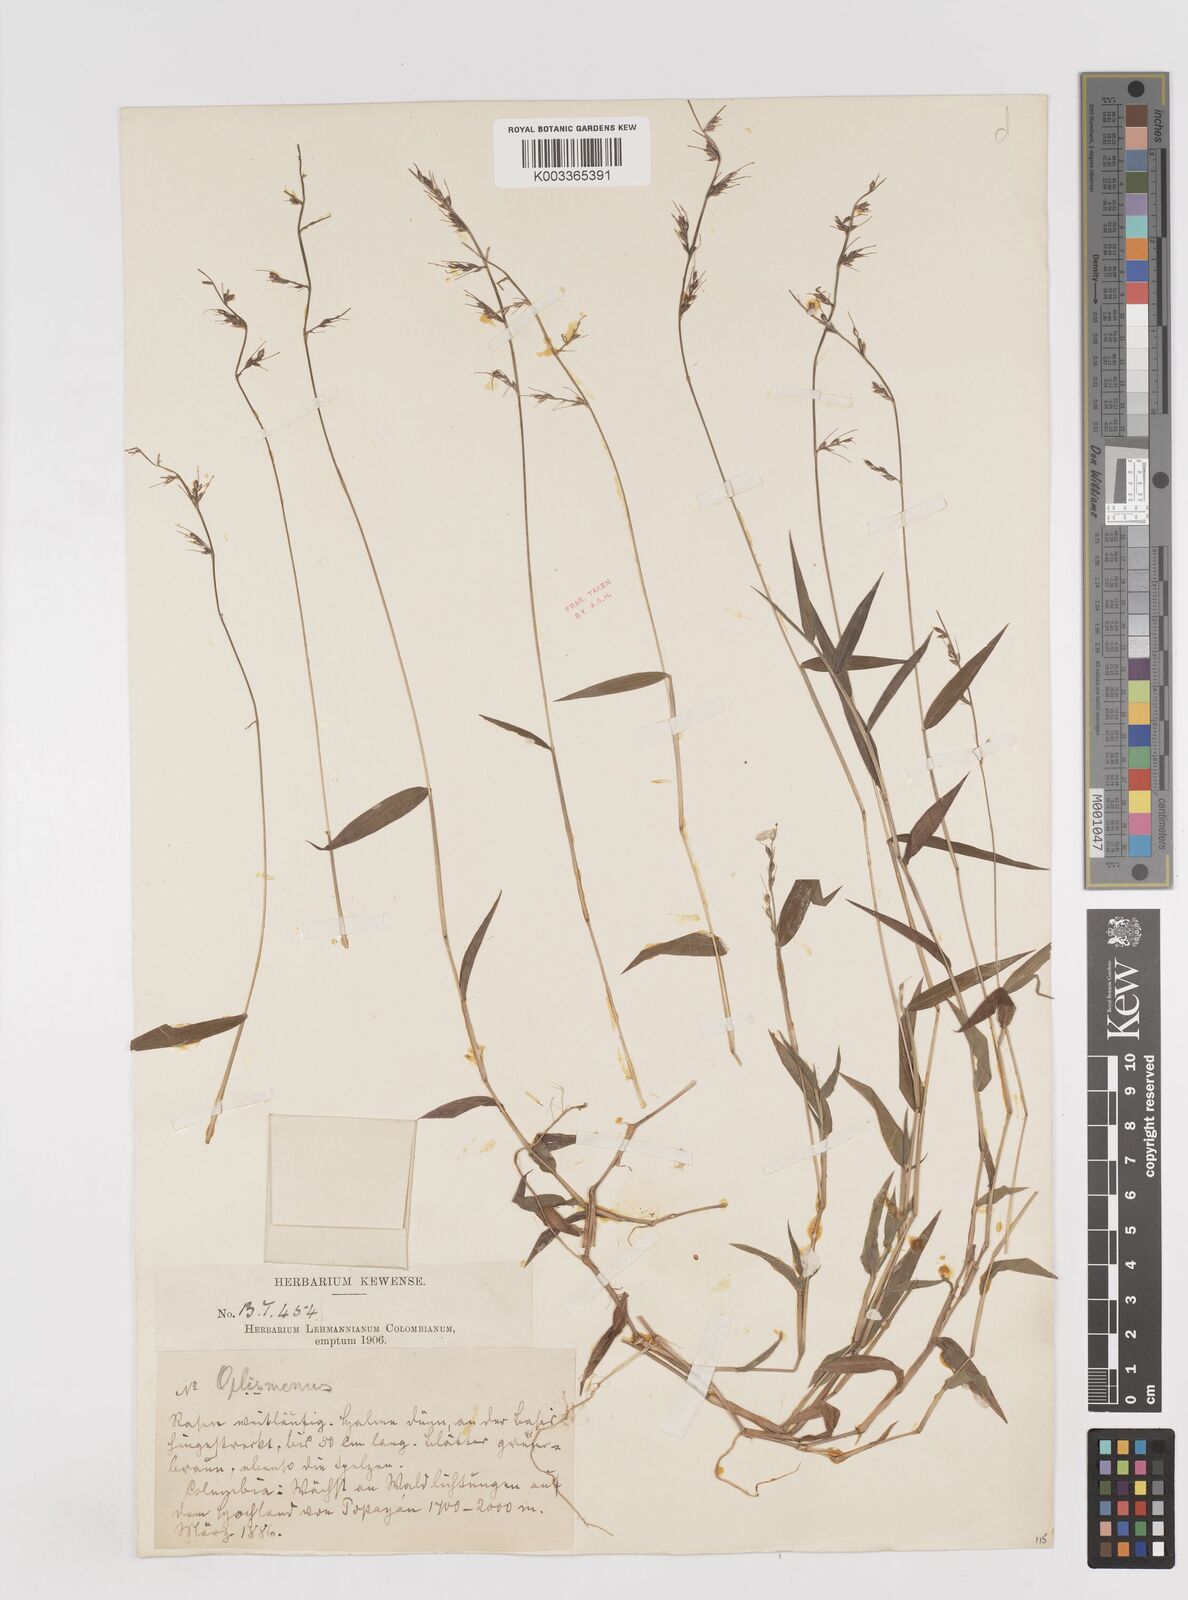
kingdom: Plantae
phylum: Tracheophyta
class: Liliopsida
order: Poales
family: Poaceae
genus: Oplismenus
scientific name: Oplismenus hirtellus
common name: Basketgrass
